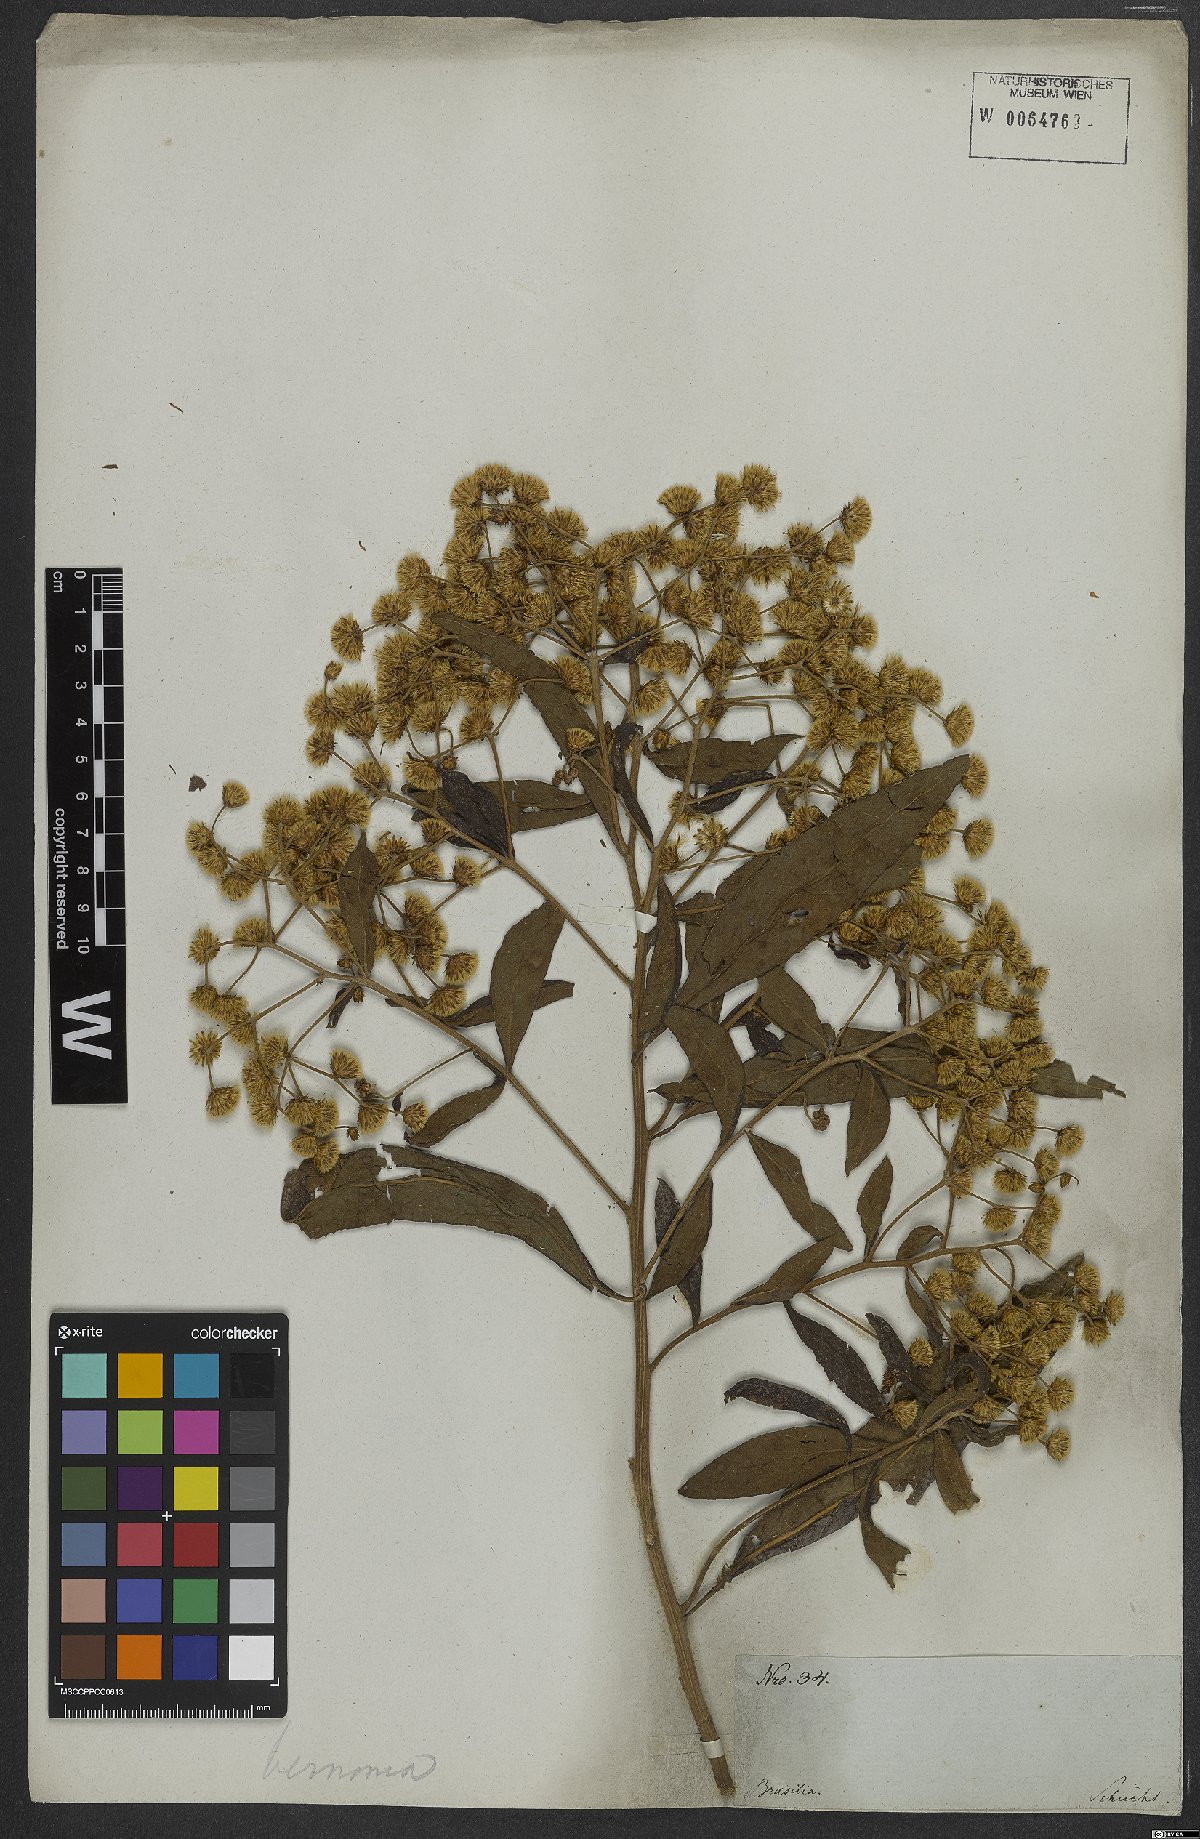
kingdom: Plantae
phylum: Tracheophyta
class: Magnoliopsida
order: Asterales
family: Asteraceae
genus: Vernonia
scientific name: Vernonia
